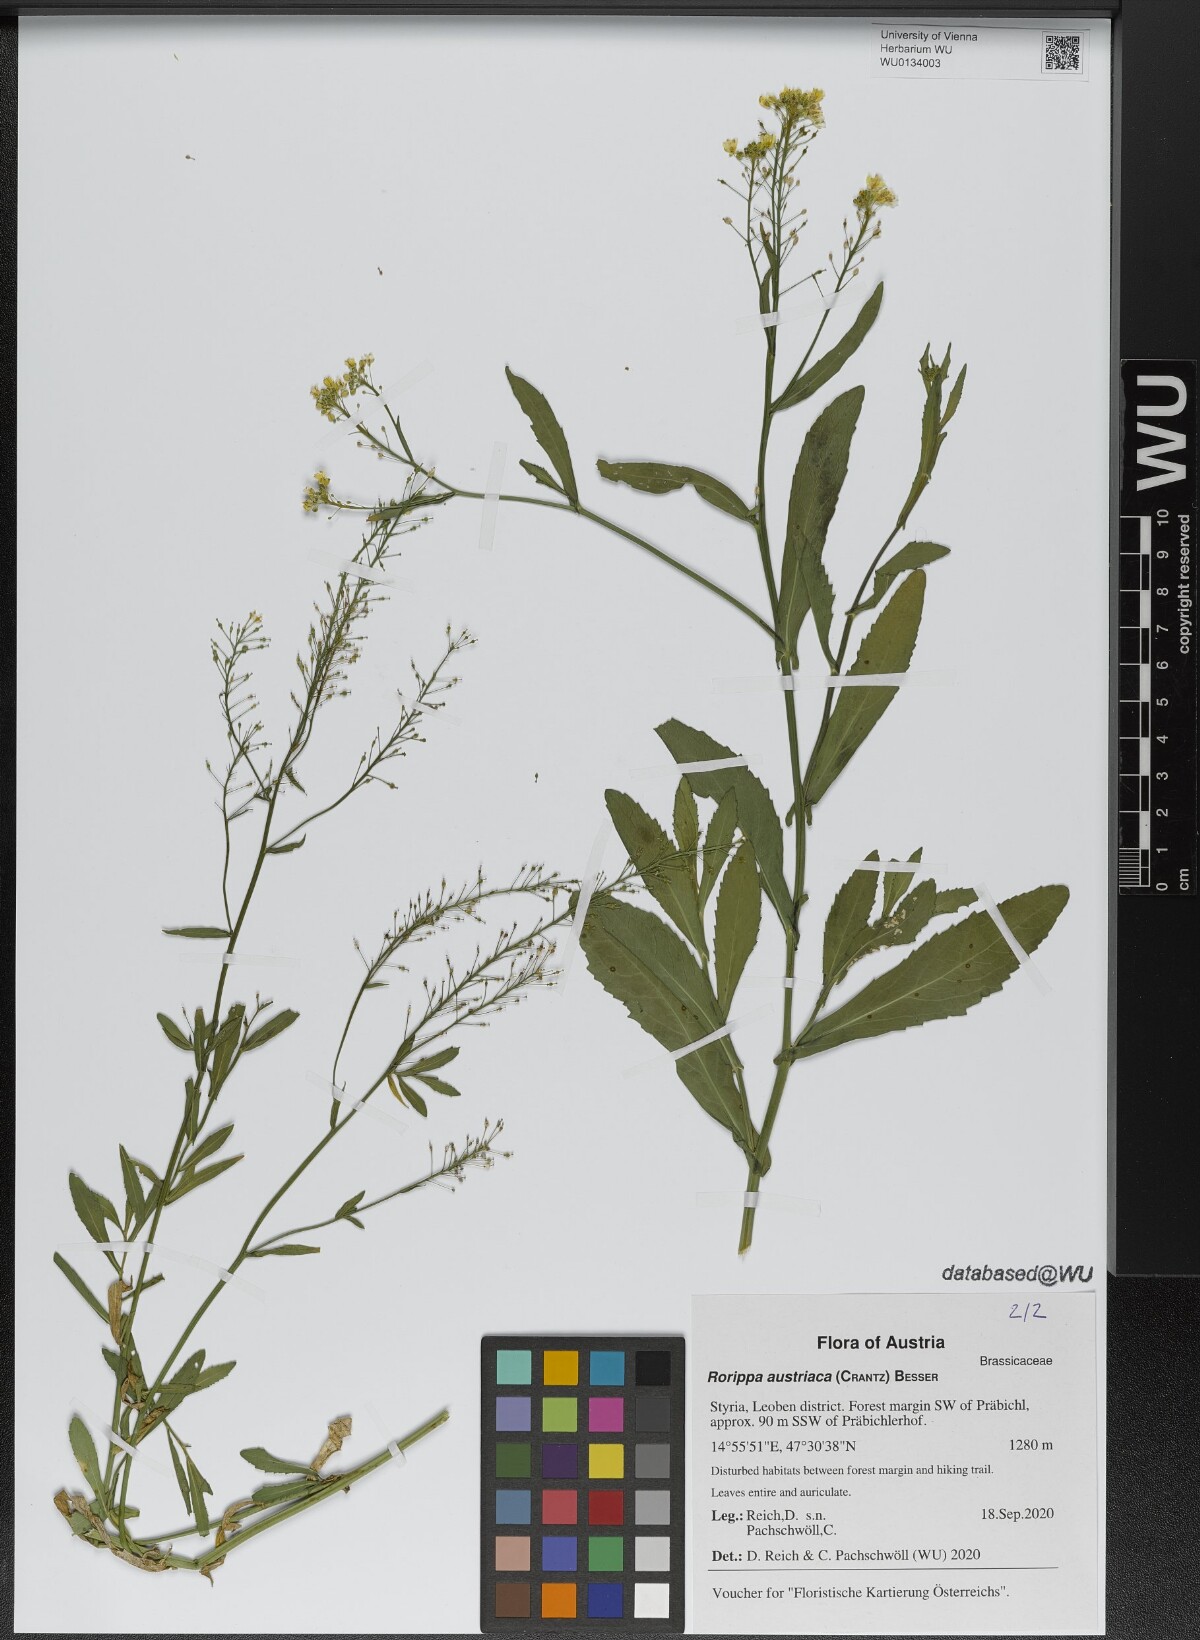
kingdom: Plantae
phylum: Tracheophyta
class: Magnoliopsida
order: Brassicales
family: Brassicaceae
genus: Rorippa
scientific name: Rorippa austriaca
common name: Austrian yellow-cress
